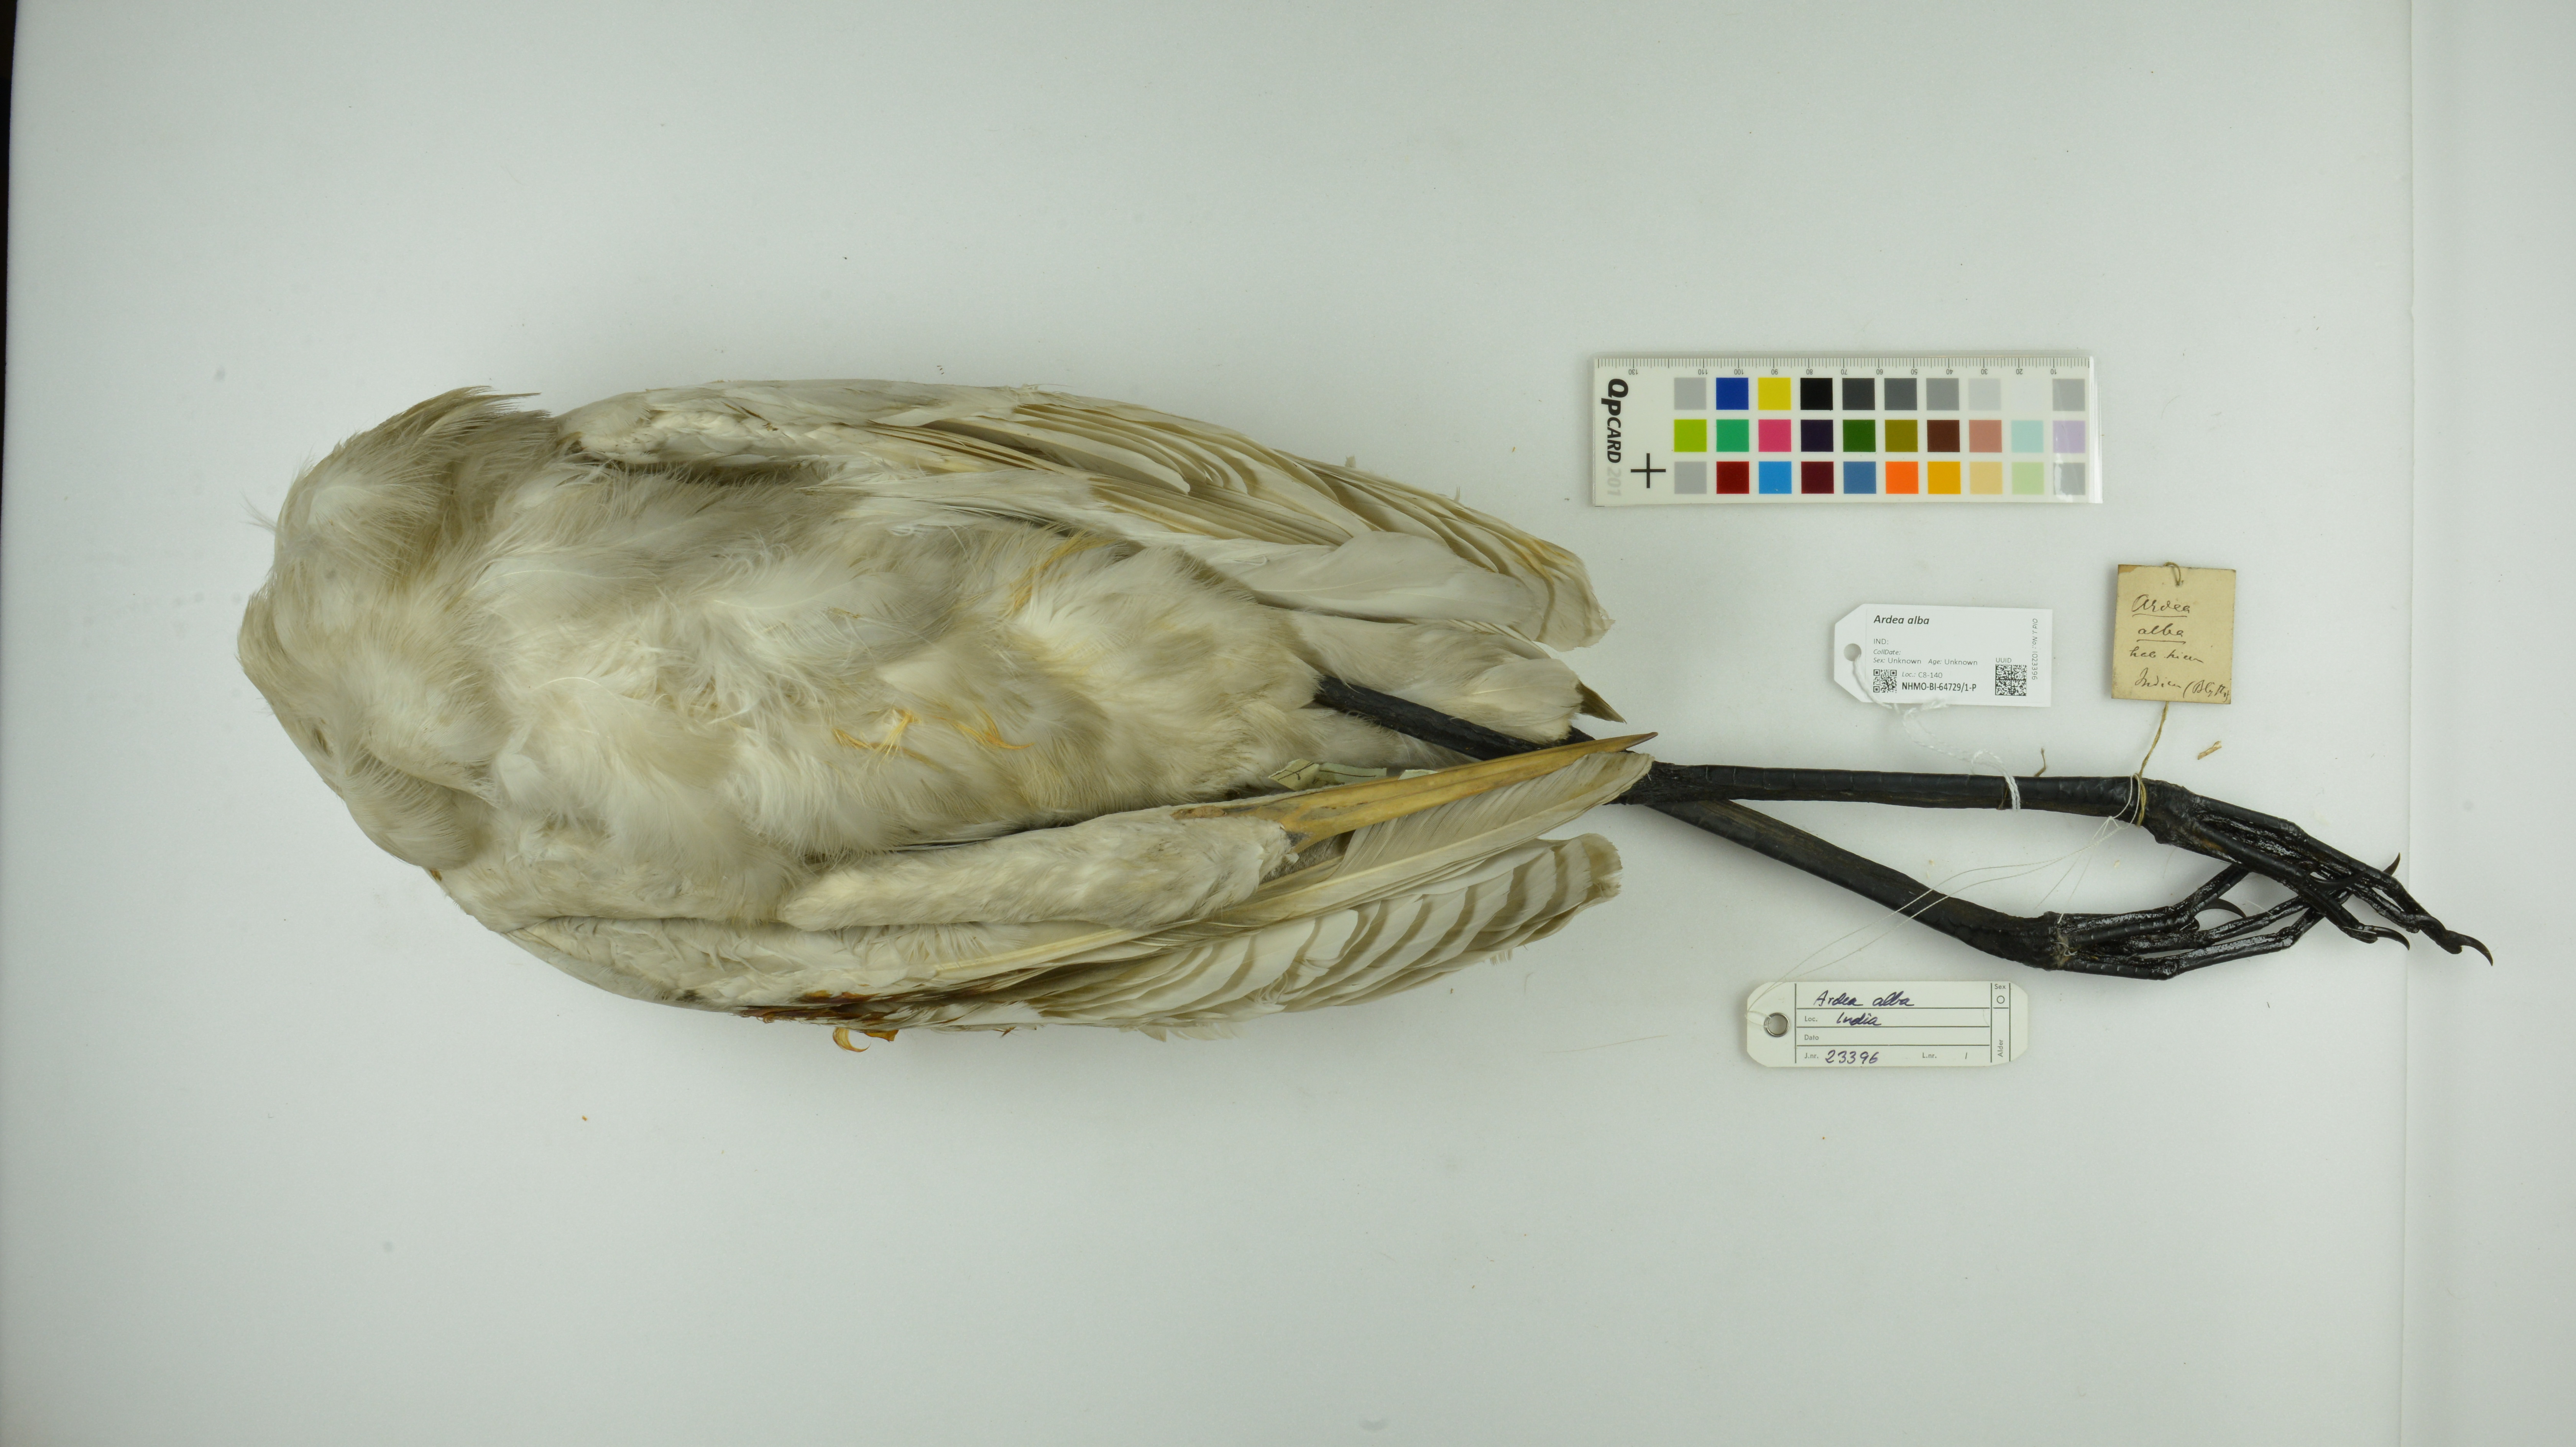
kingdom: Animalia
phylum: Chordata
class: Aves
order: Pelecaniformes
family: Ardeidae
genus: Ardea
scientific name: Ardea alba
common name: Great egret
